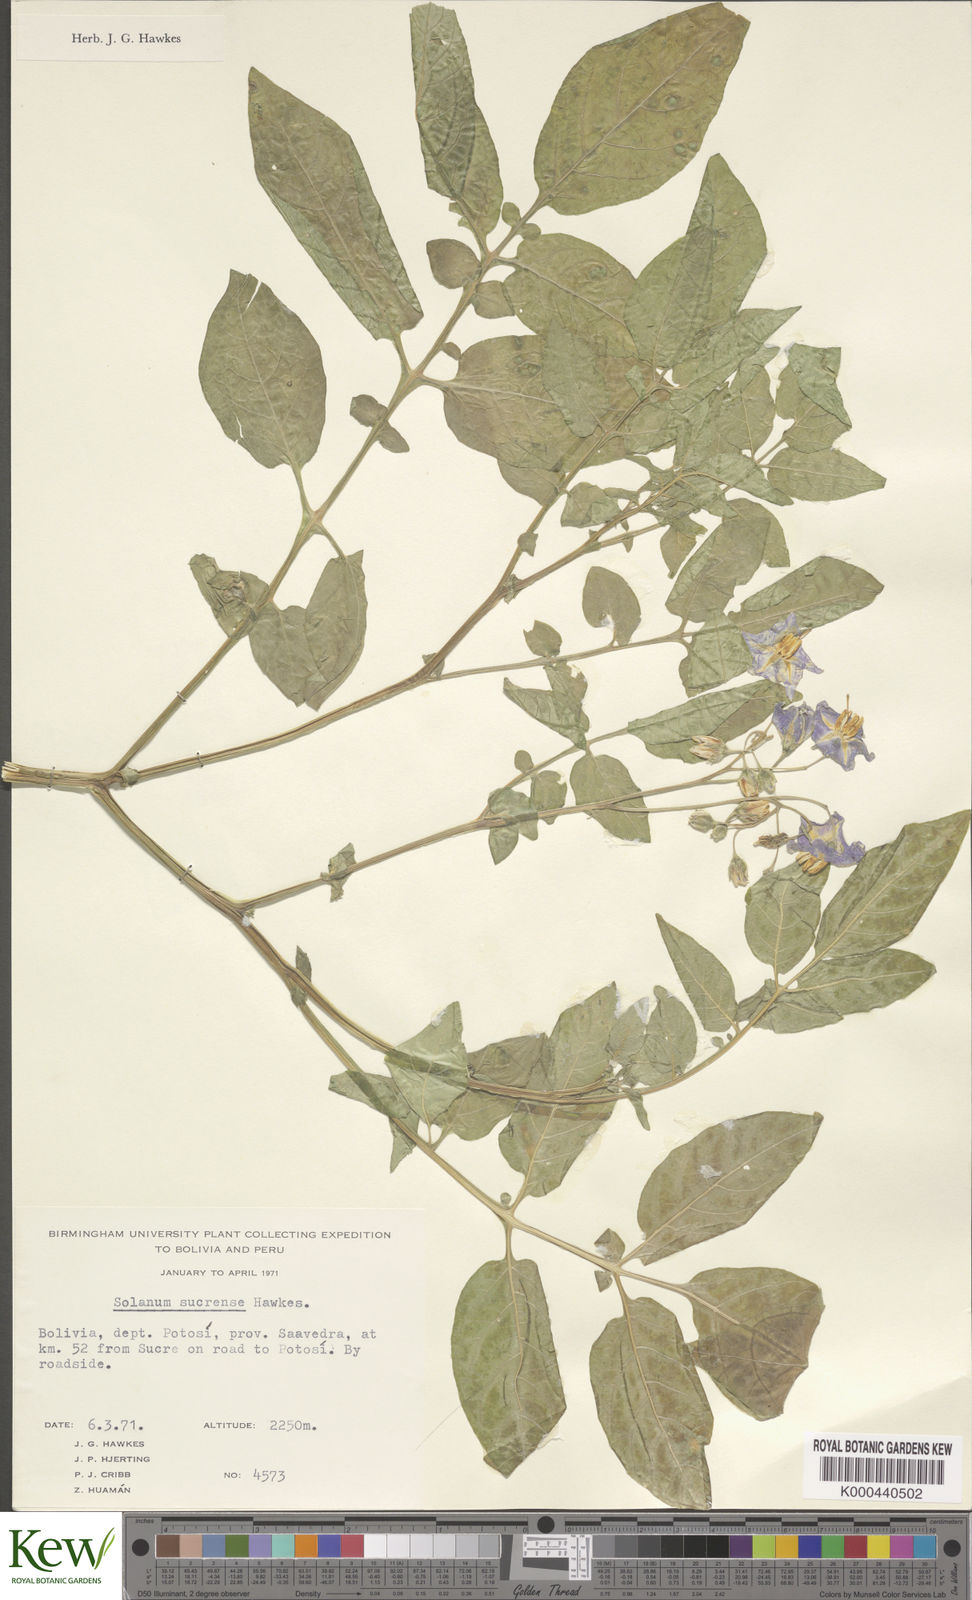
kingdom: Plantae
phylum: Tracheophyta
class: Magnoliopsida
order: Solanales
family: Solanaceae
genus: Solanum
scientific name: Solanum brevicaule
